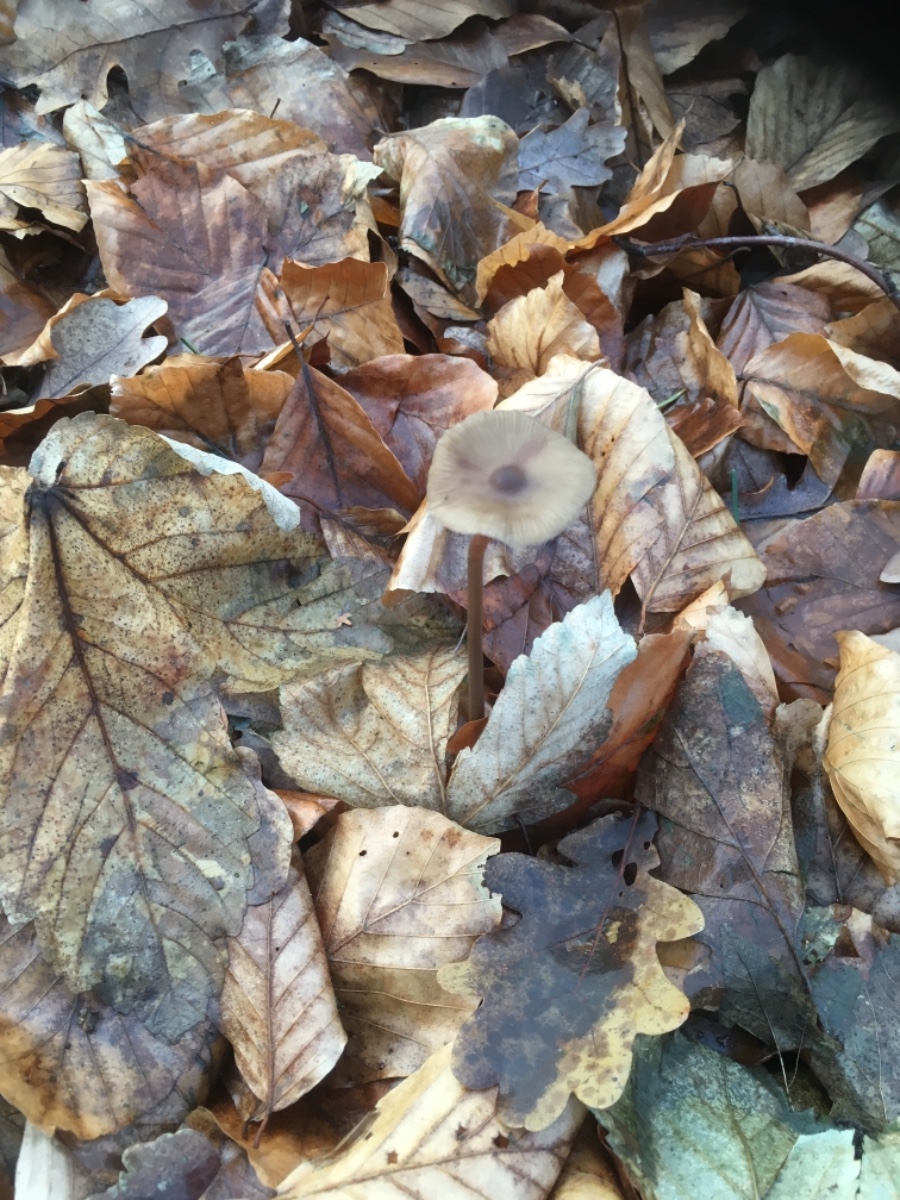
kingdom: Fungi
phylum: Basidiomycota
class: Agaricomycetes
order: Agaricales
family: Mycenaceae
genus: Mycena
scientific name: Mycena
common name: huesvamp
